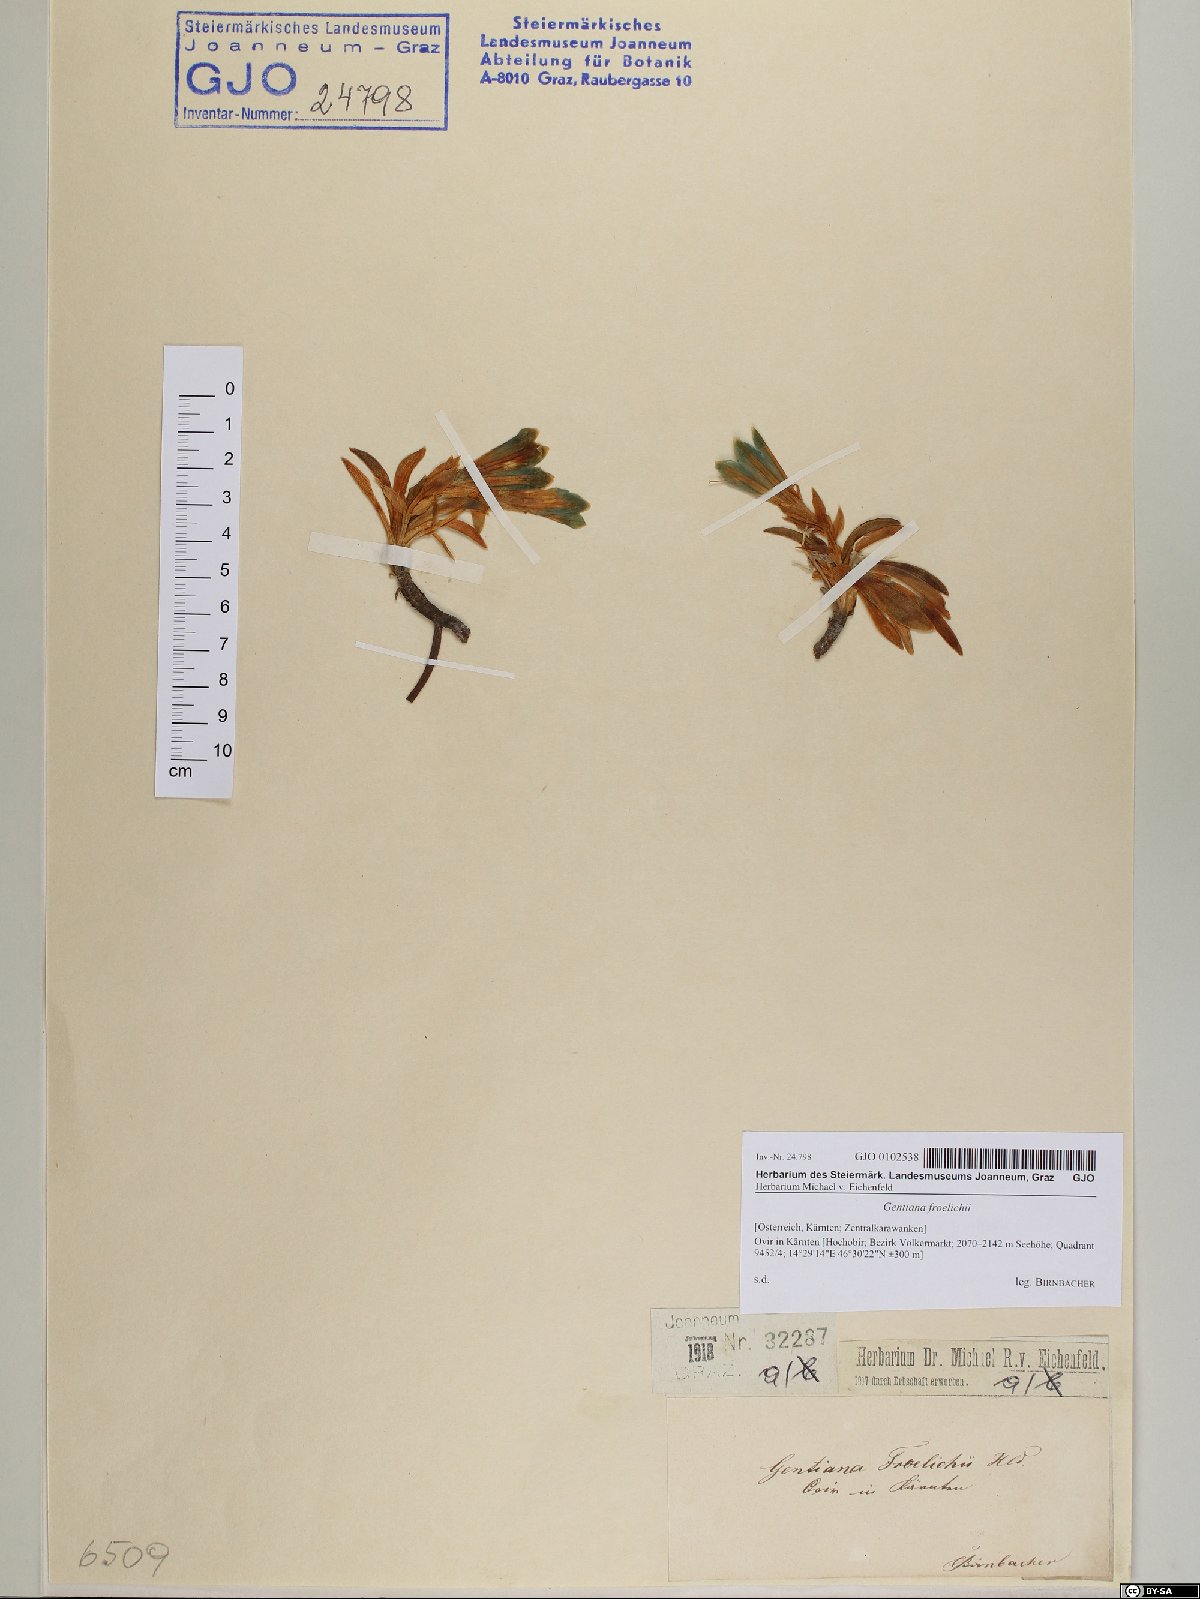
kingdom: Plantae
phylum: Tracheophyta
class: Magnoliopsida
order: Gentianales
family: Gentianaceae
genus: Gentiana
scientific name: Gentiana froelichii
